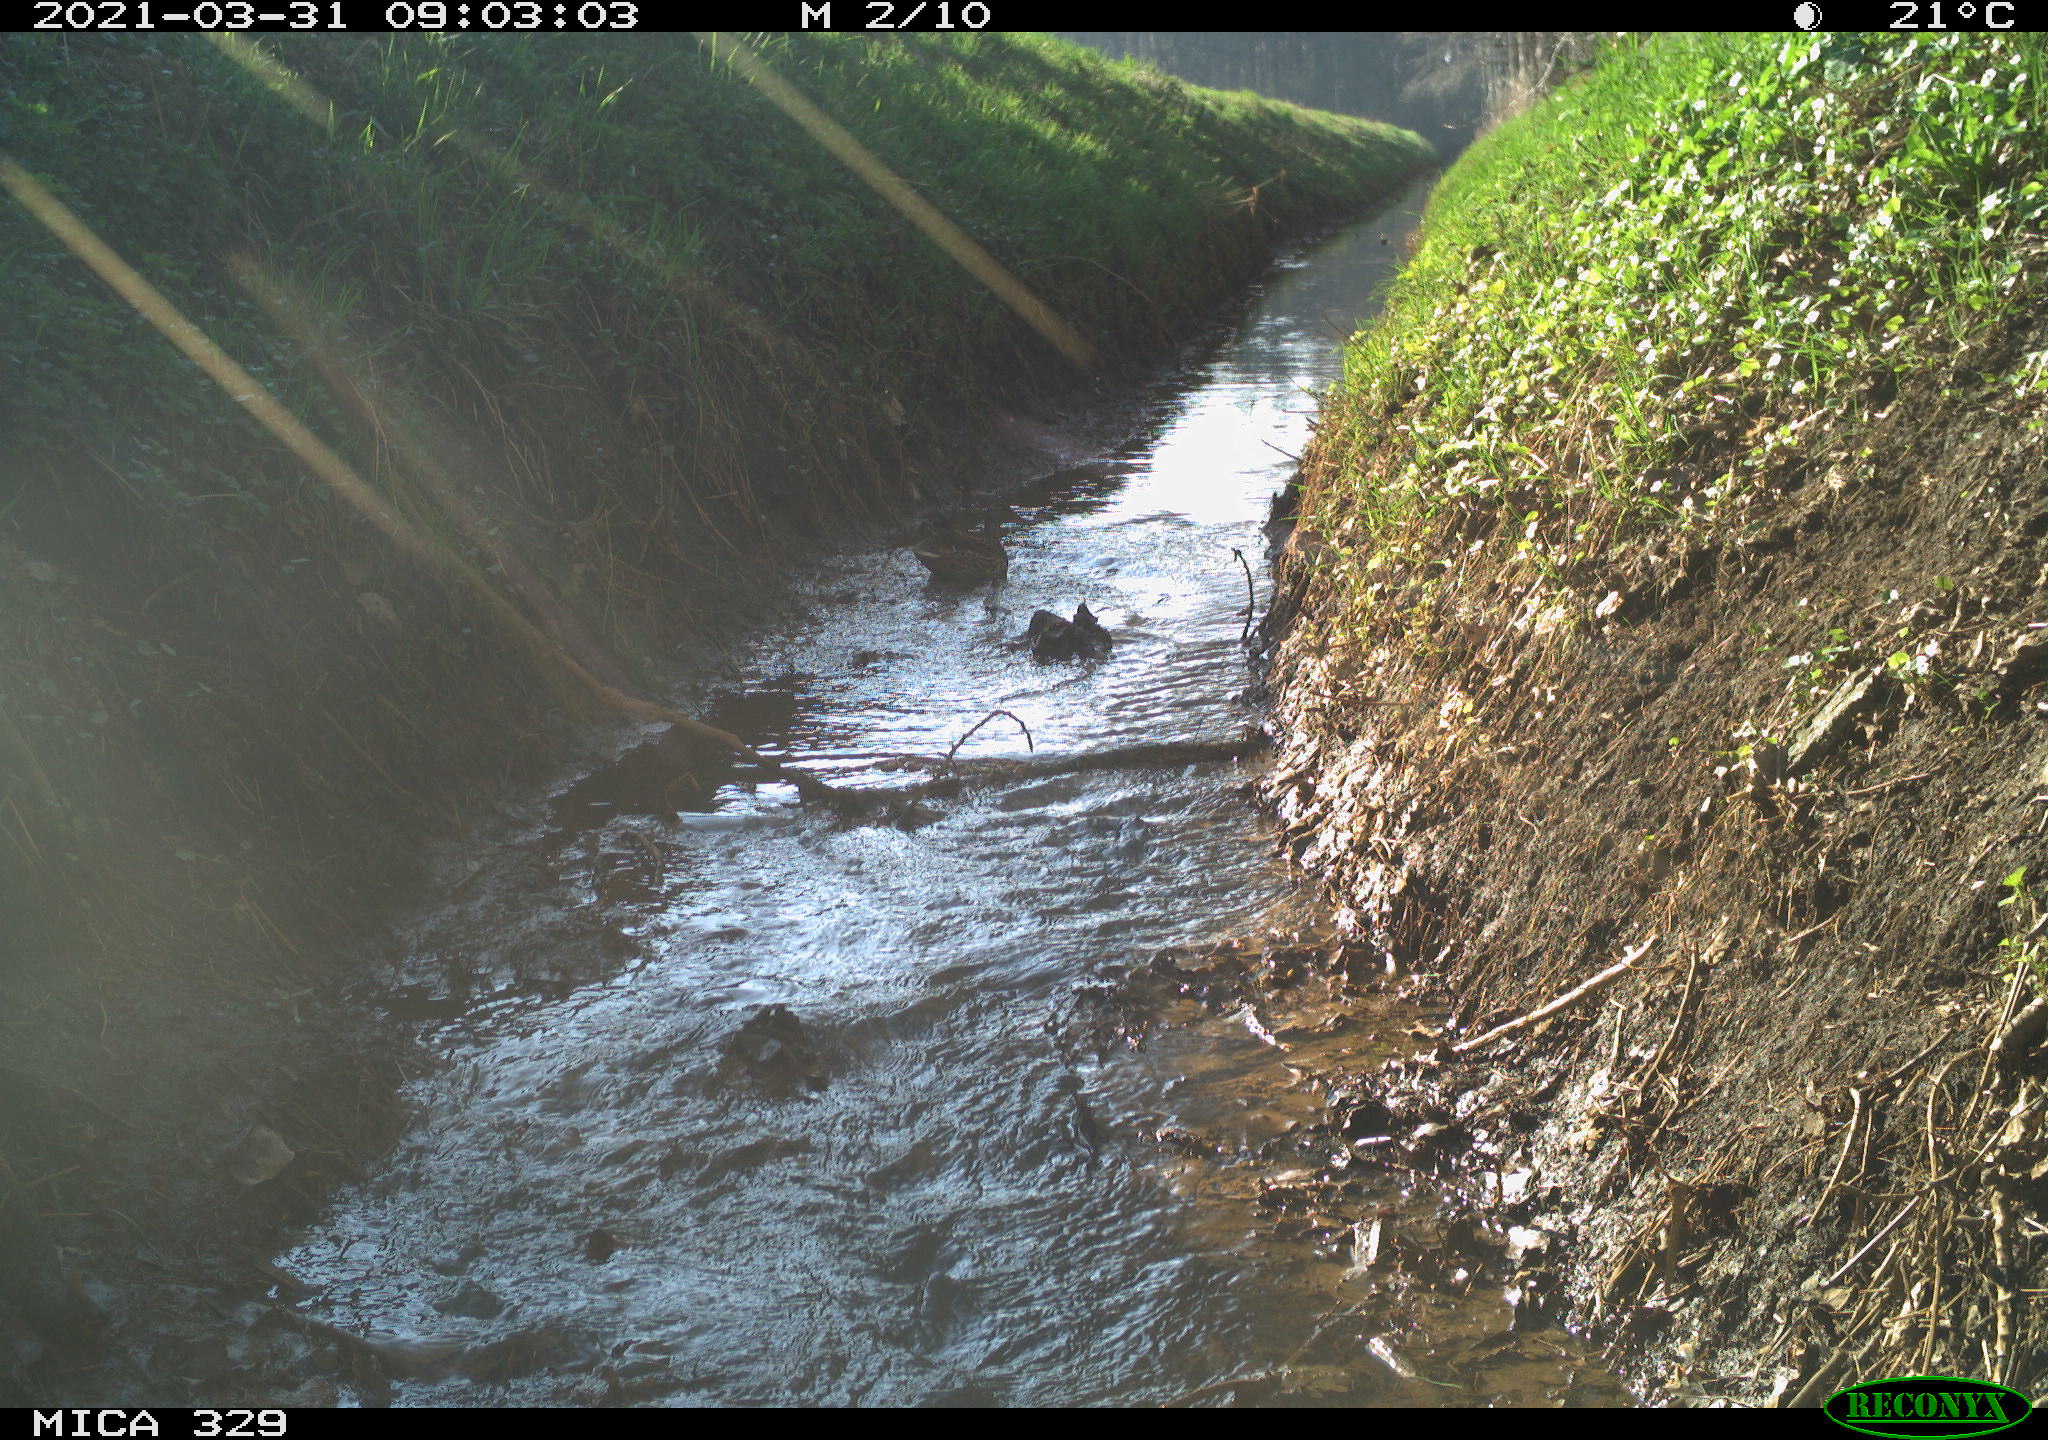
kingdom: Animalia
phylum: Chordata
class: Aves
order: Anseriformes
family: Anatidae
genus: Anas
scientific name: Anas platyrhynchos
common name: Mallard
